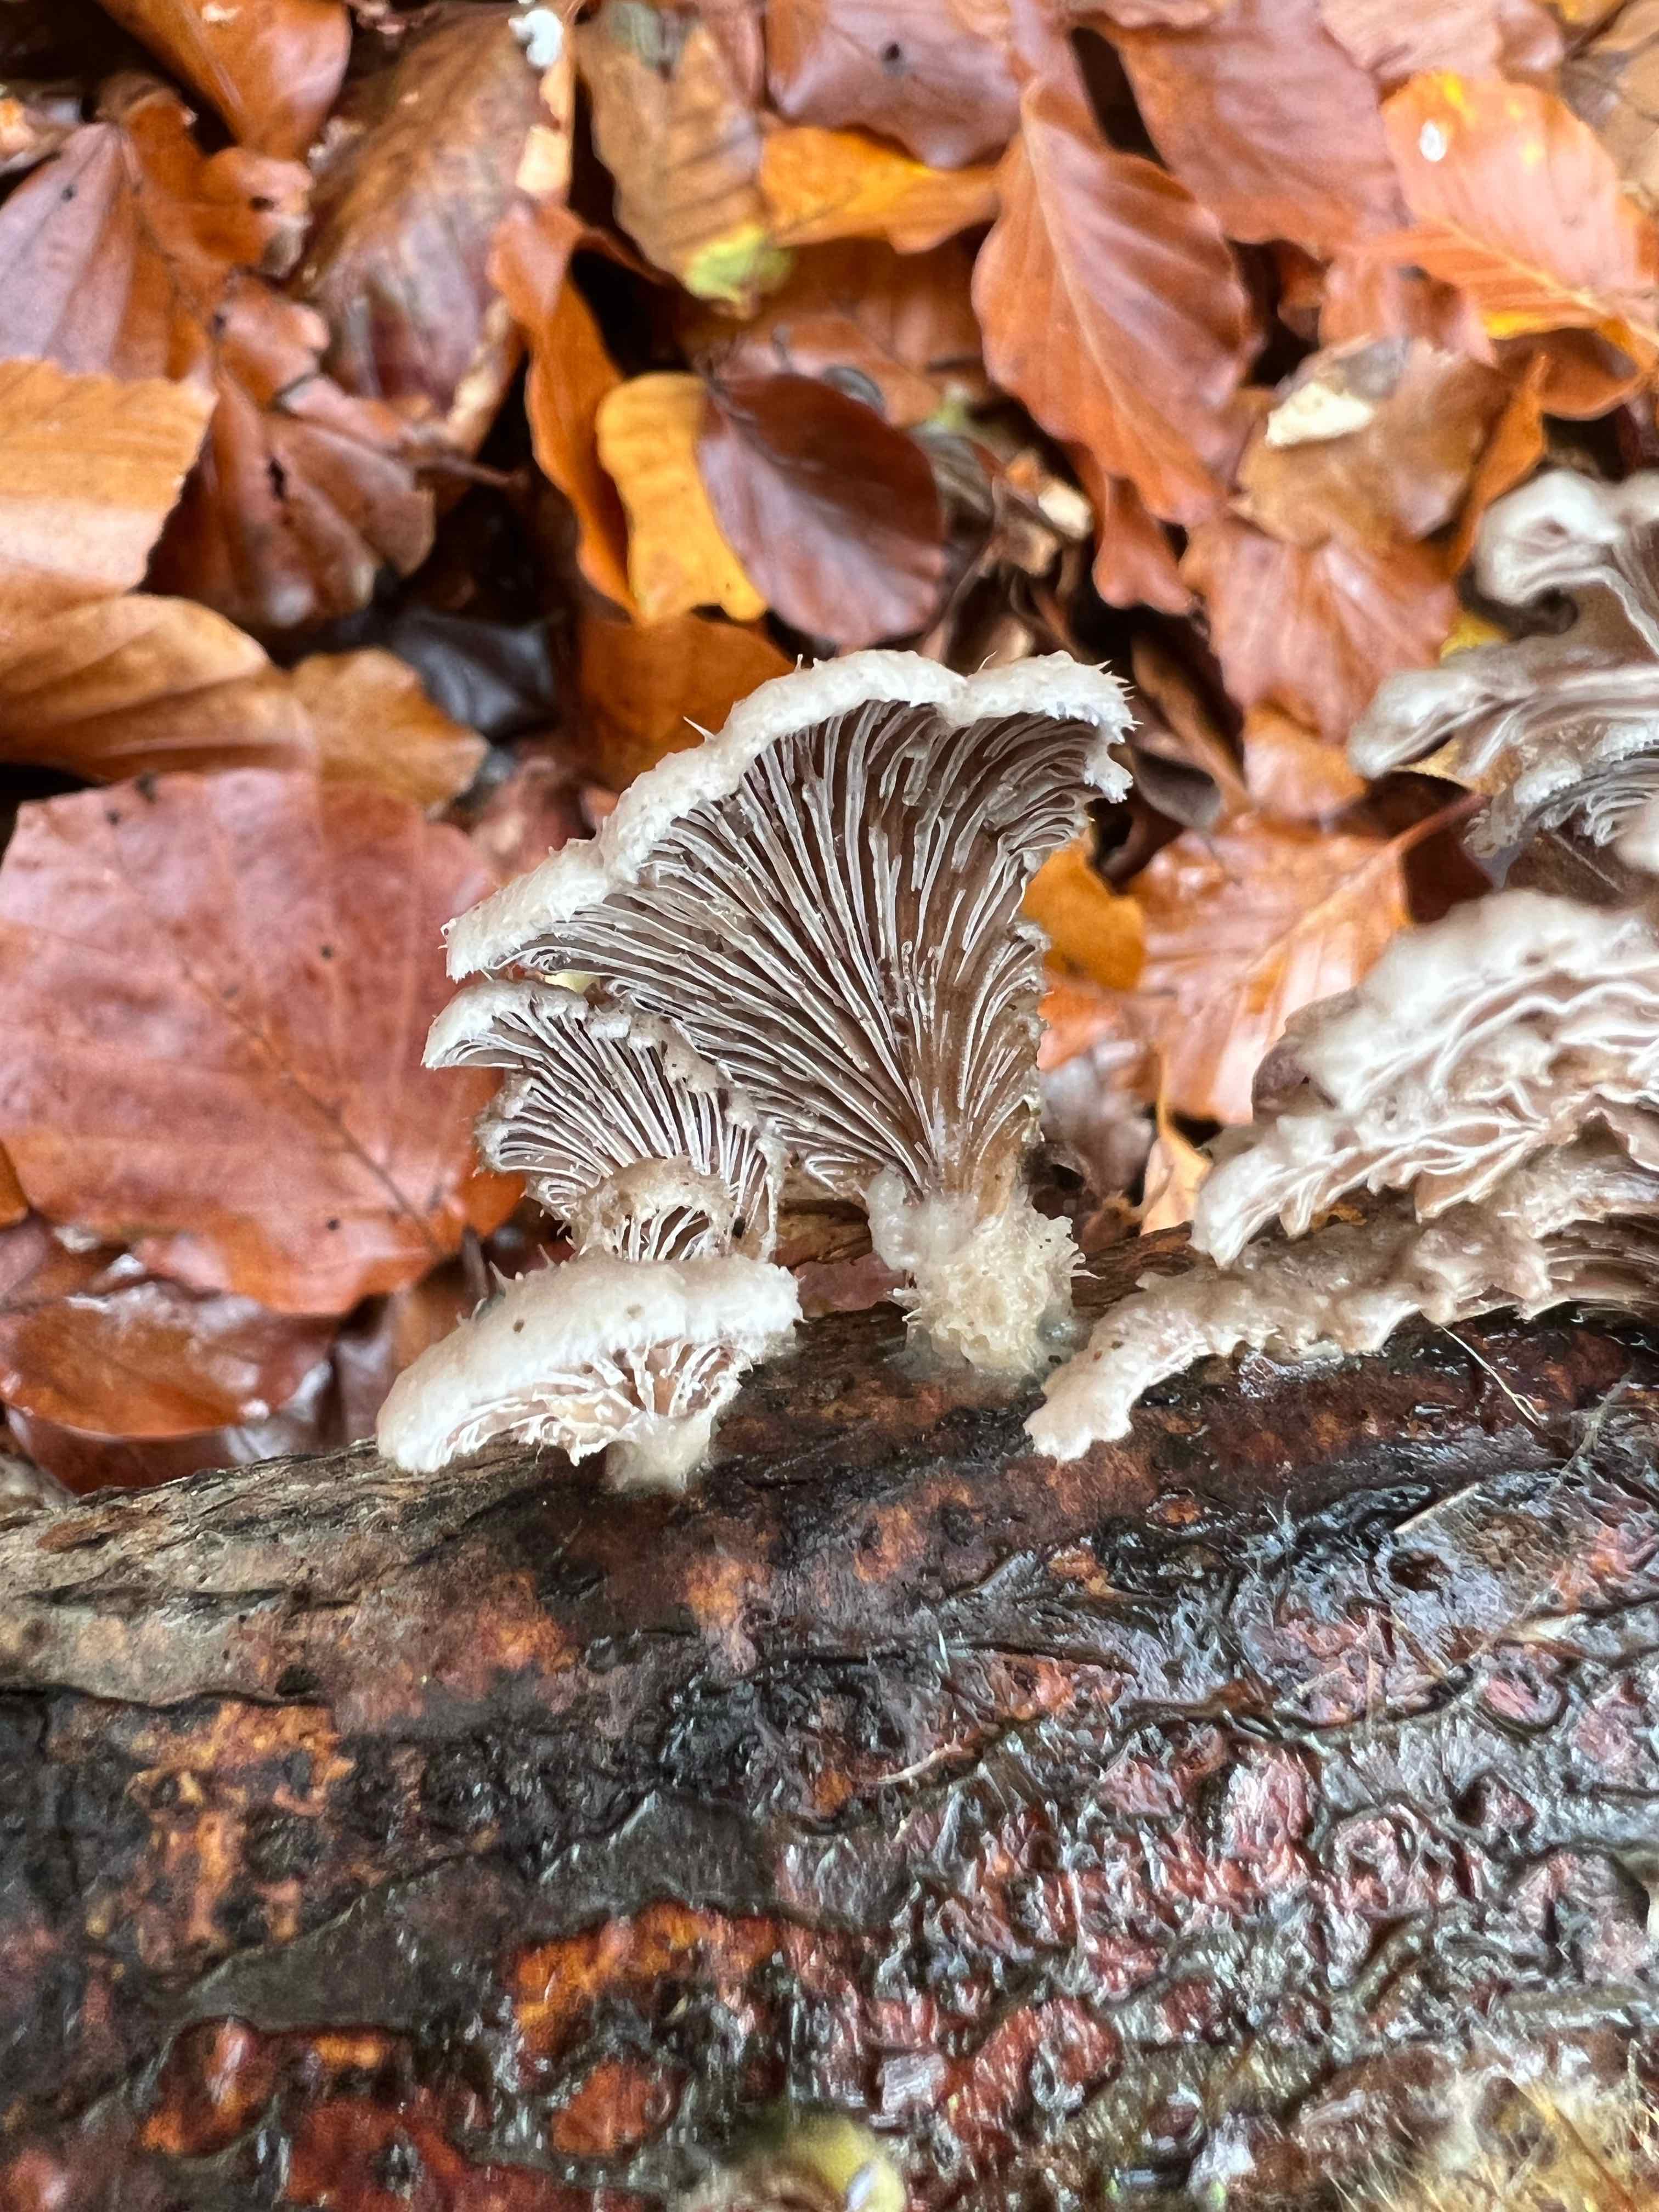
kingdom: Fungi
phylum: Basidiomycota
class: Agaricomycetes
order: Agaricales
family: Schizophyllaceae
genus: Schizophyllum
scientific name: Schizophyllum commune
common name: kløvblad
